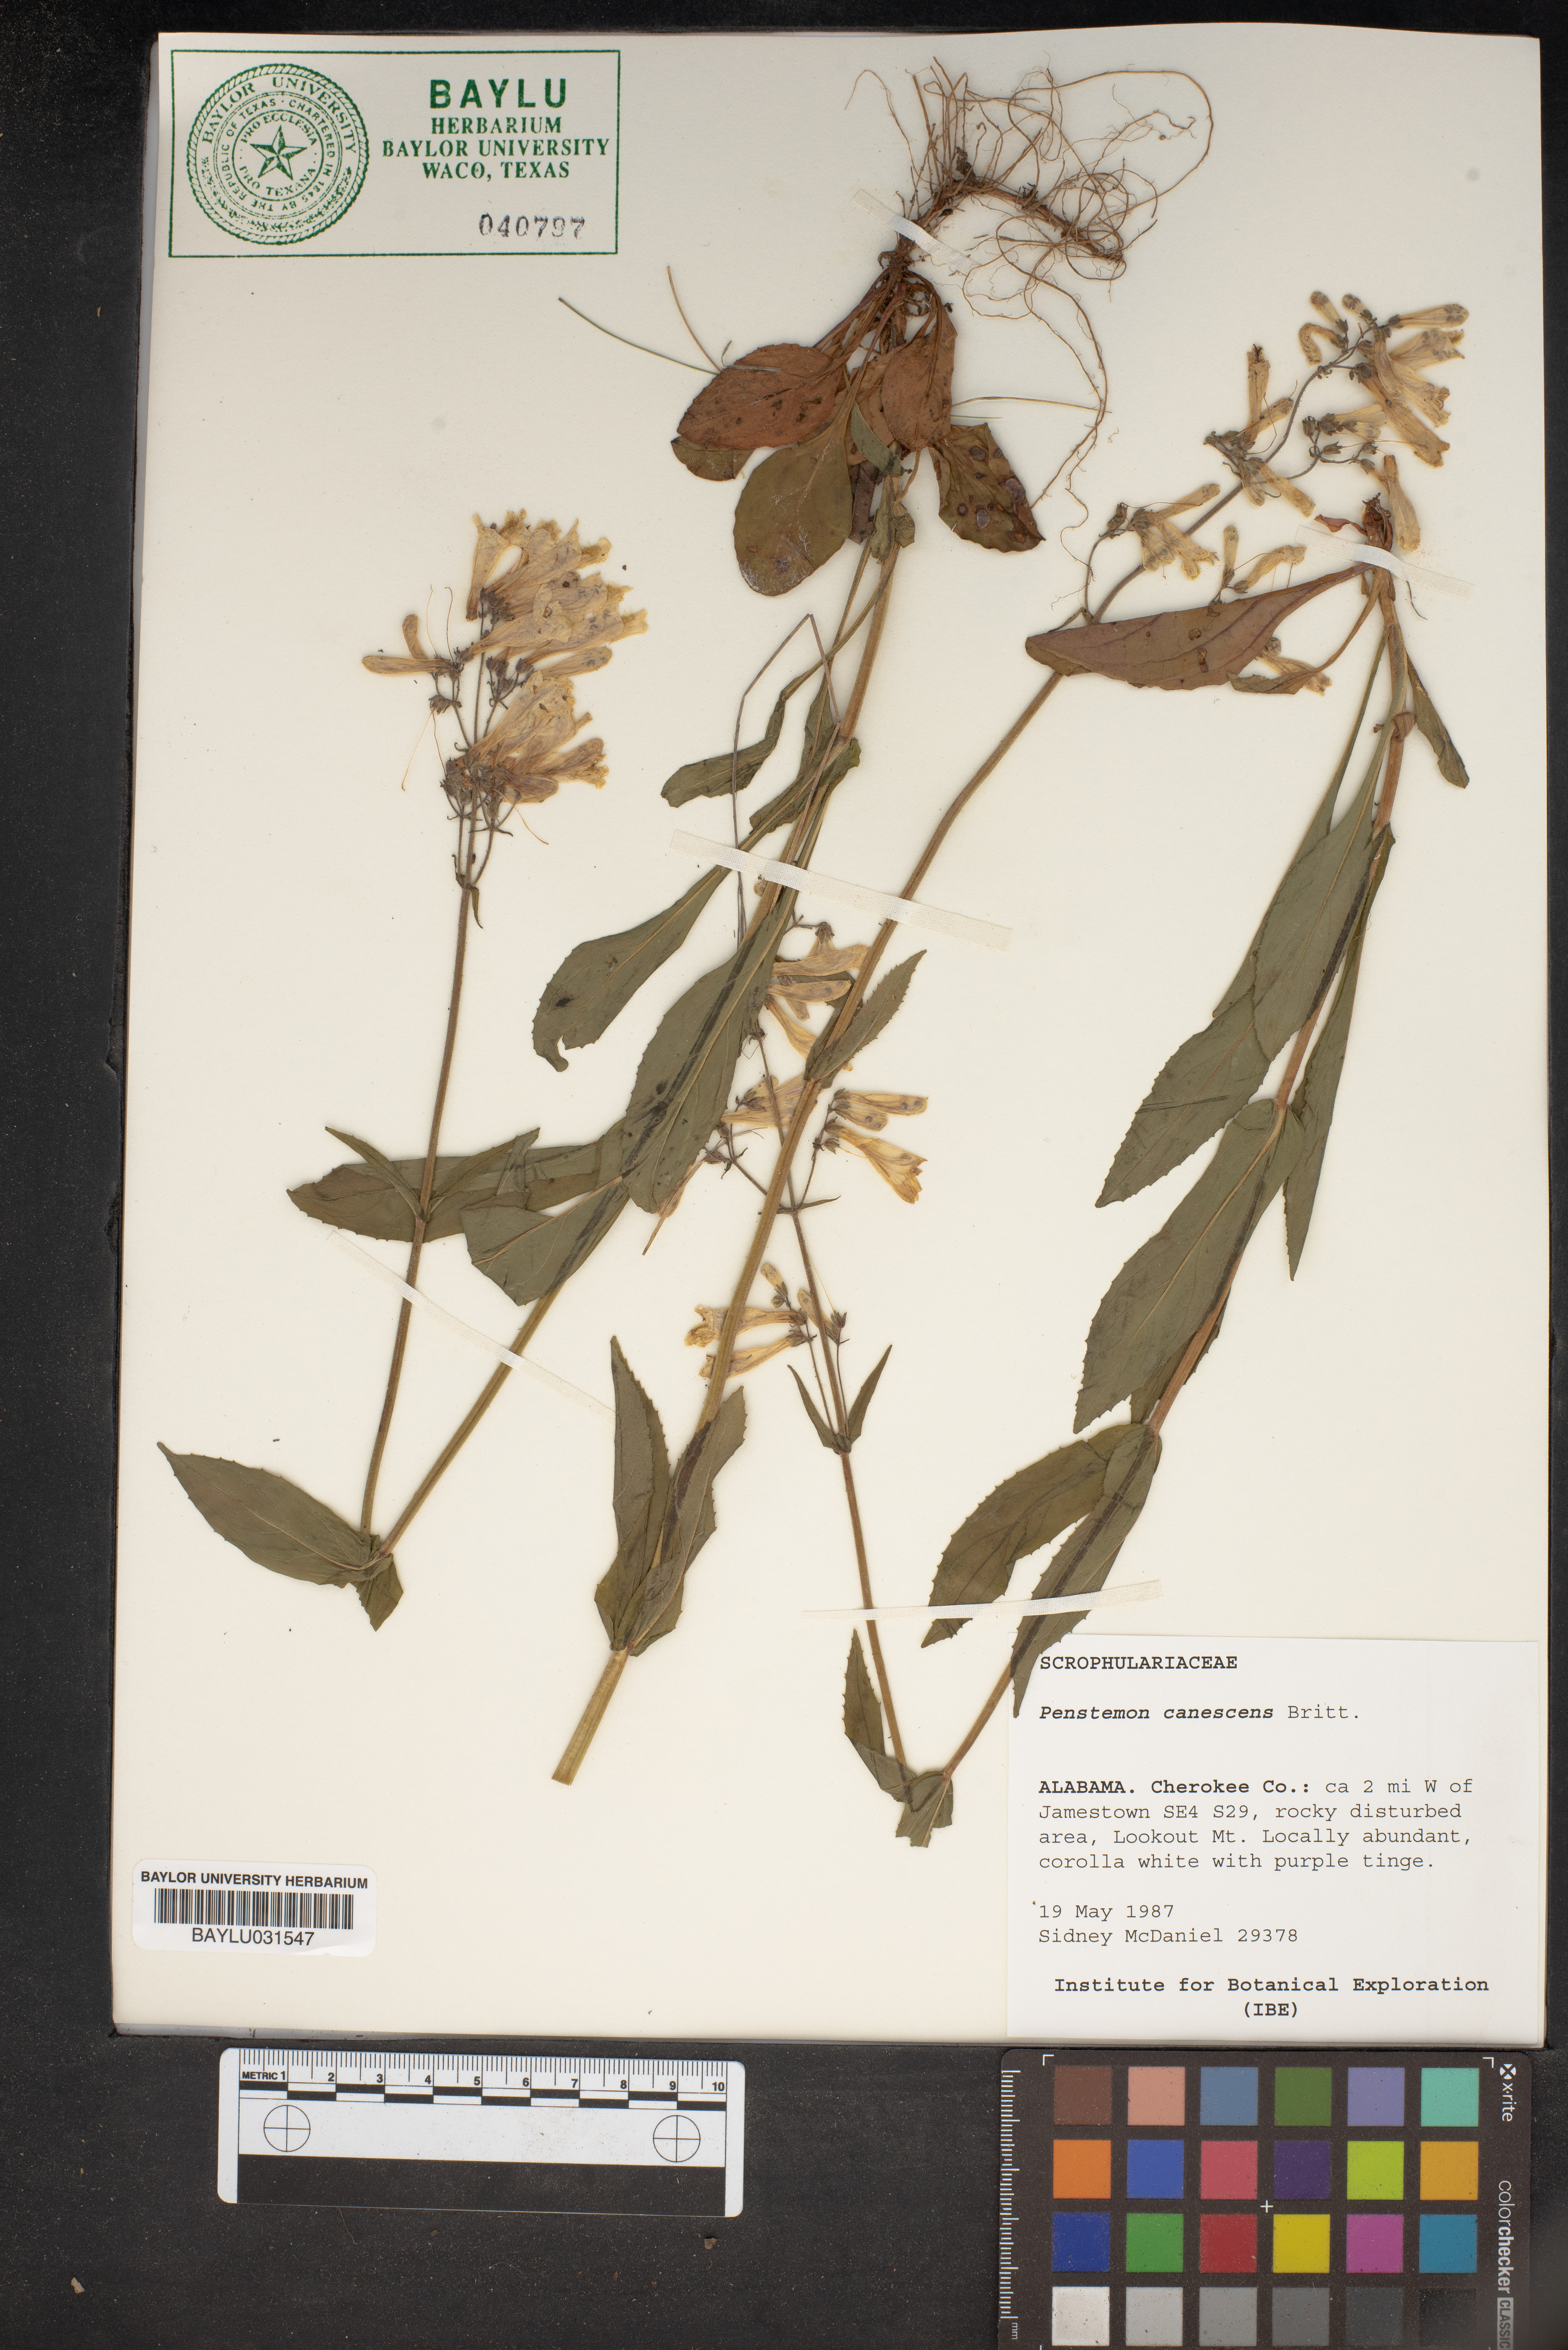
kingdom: Plantae
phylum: Tracheophyta
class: Magnoliopsida
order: Lamiales
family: Plantaginaceae
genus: Penstemon
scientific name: Penstemon canescens
